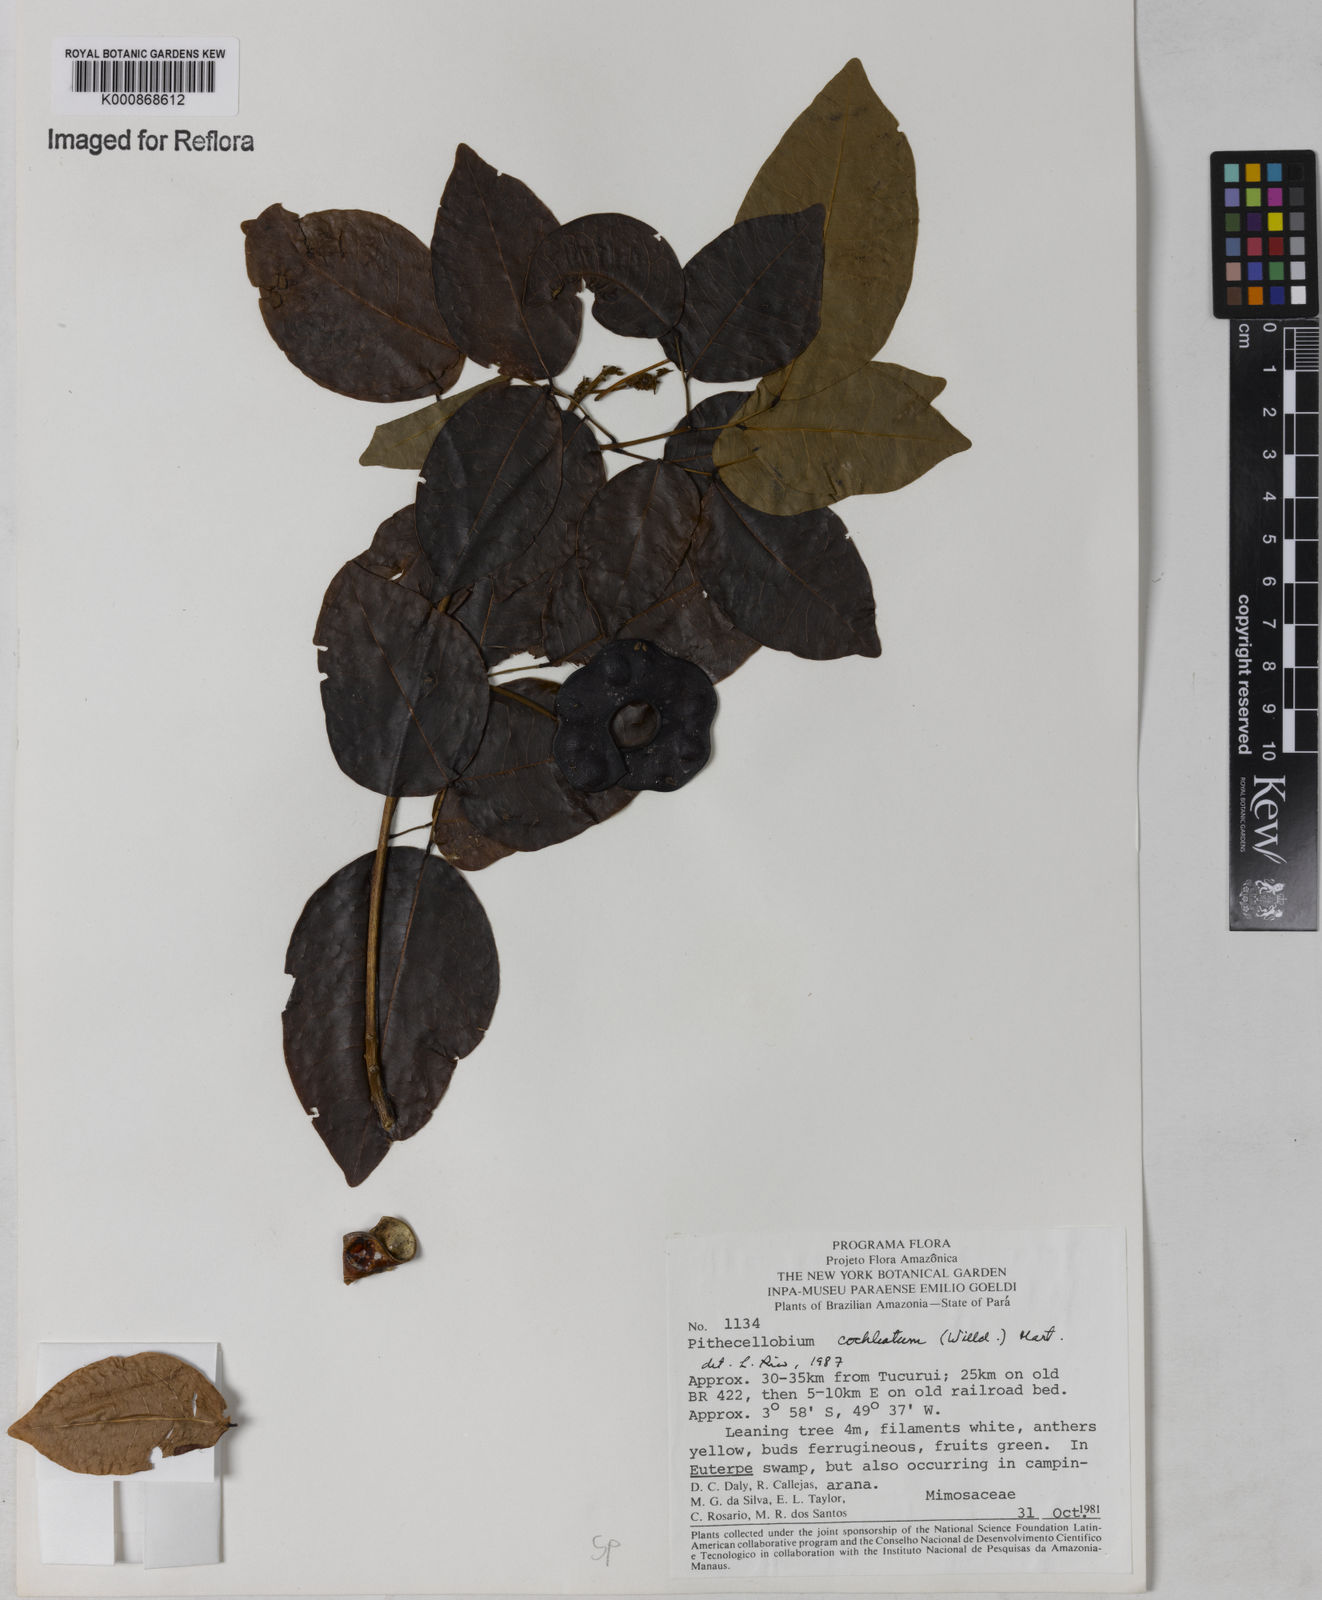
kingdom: Plantae
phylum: Tracheophyta
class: Magnoliopsida
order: Fabales
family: Fabaceae
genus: Jupunba
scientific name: Jupunba cochleata
